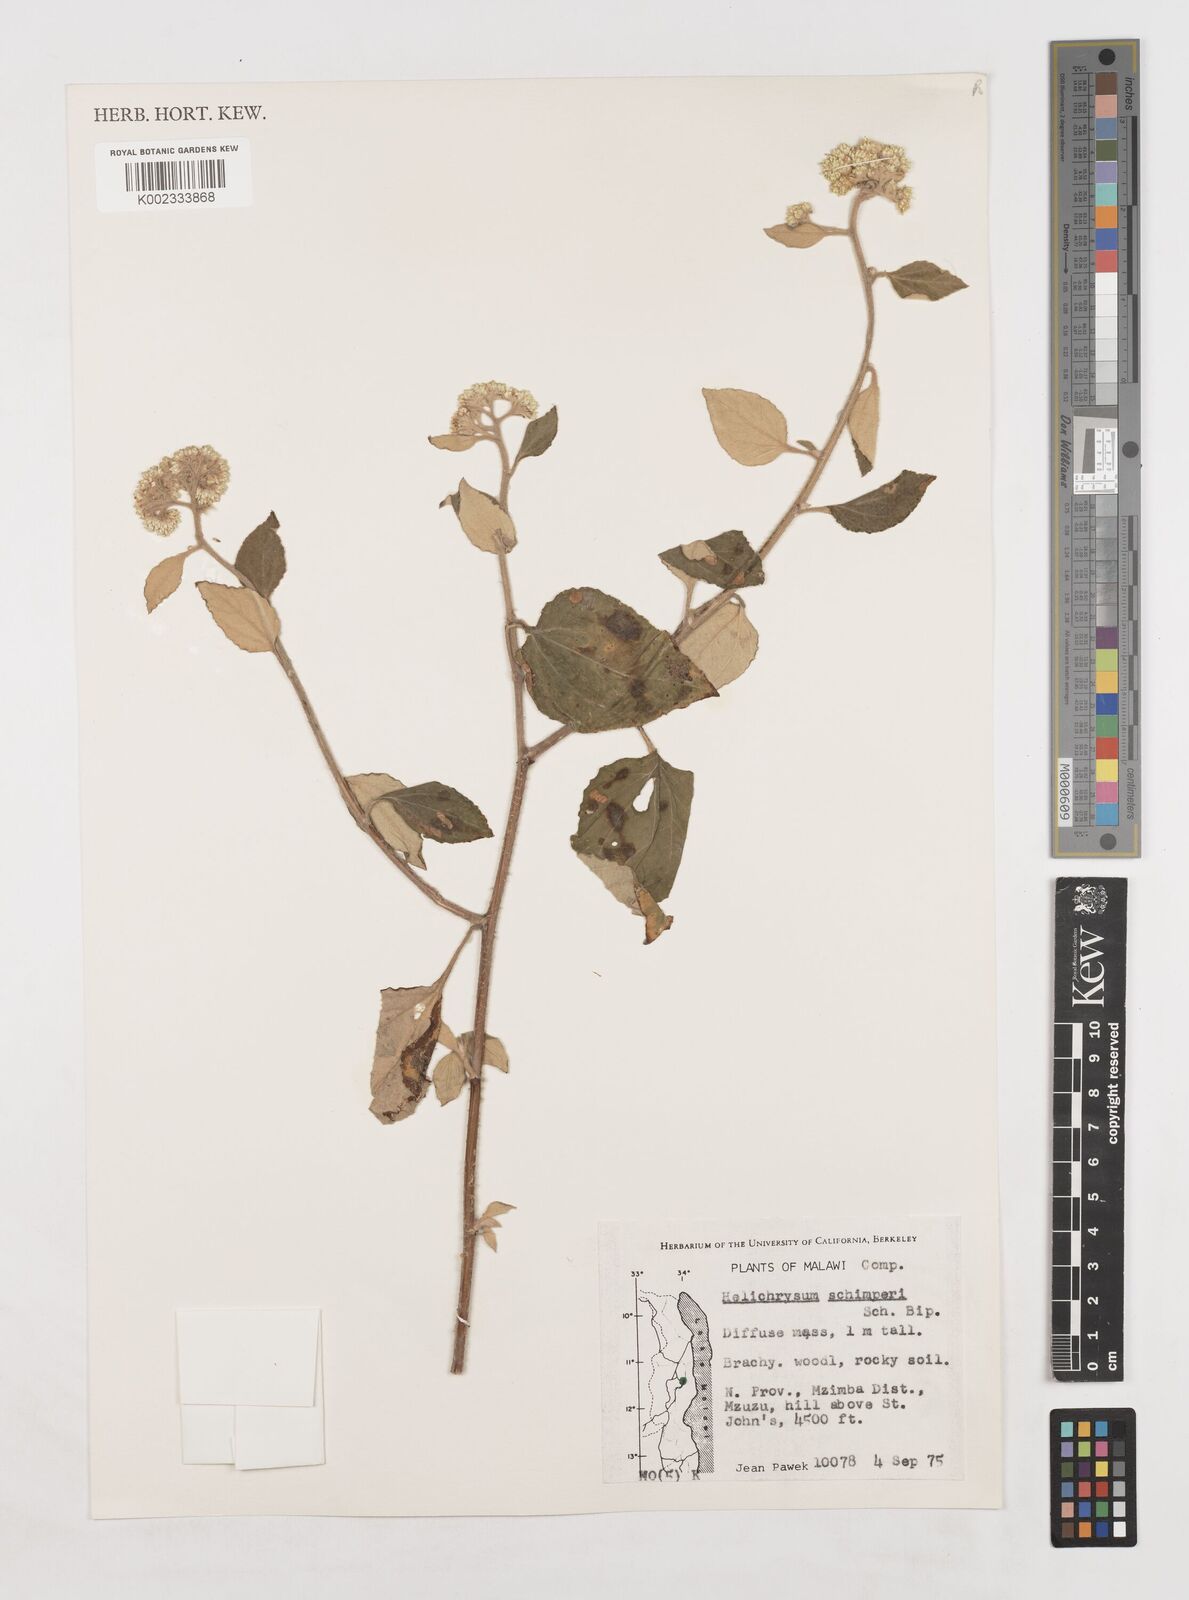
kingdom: Plantae
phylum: Tracheophyta
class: Magnoliopsida
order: Asterales
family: Asteraceae
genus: Helichrysum
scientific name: Helichrysum schimperi
